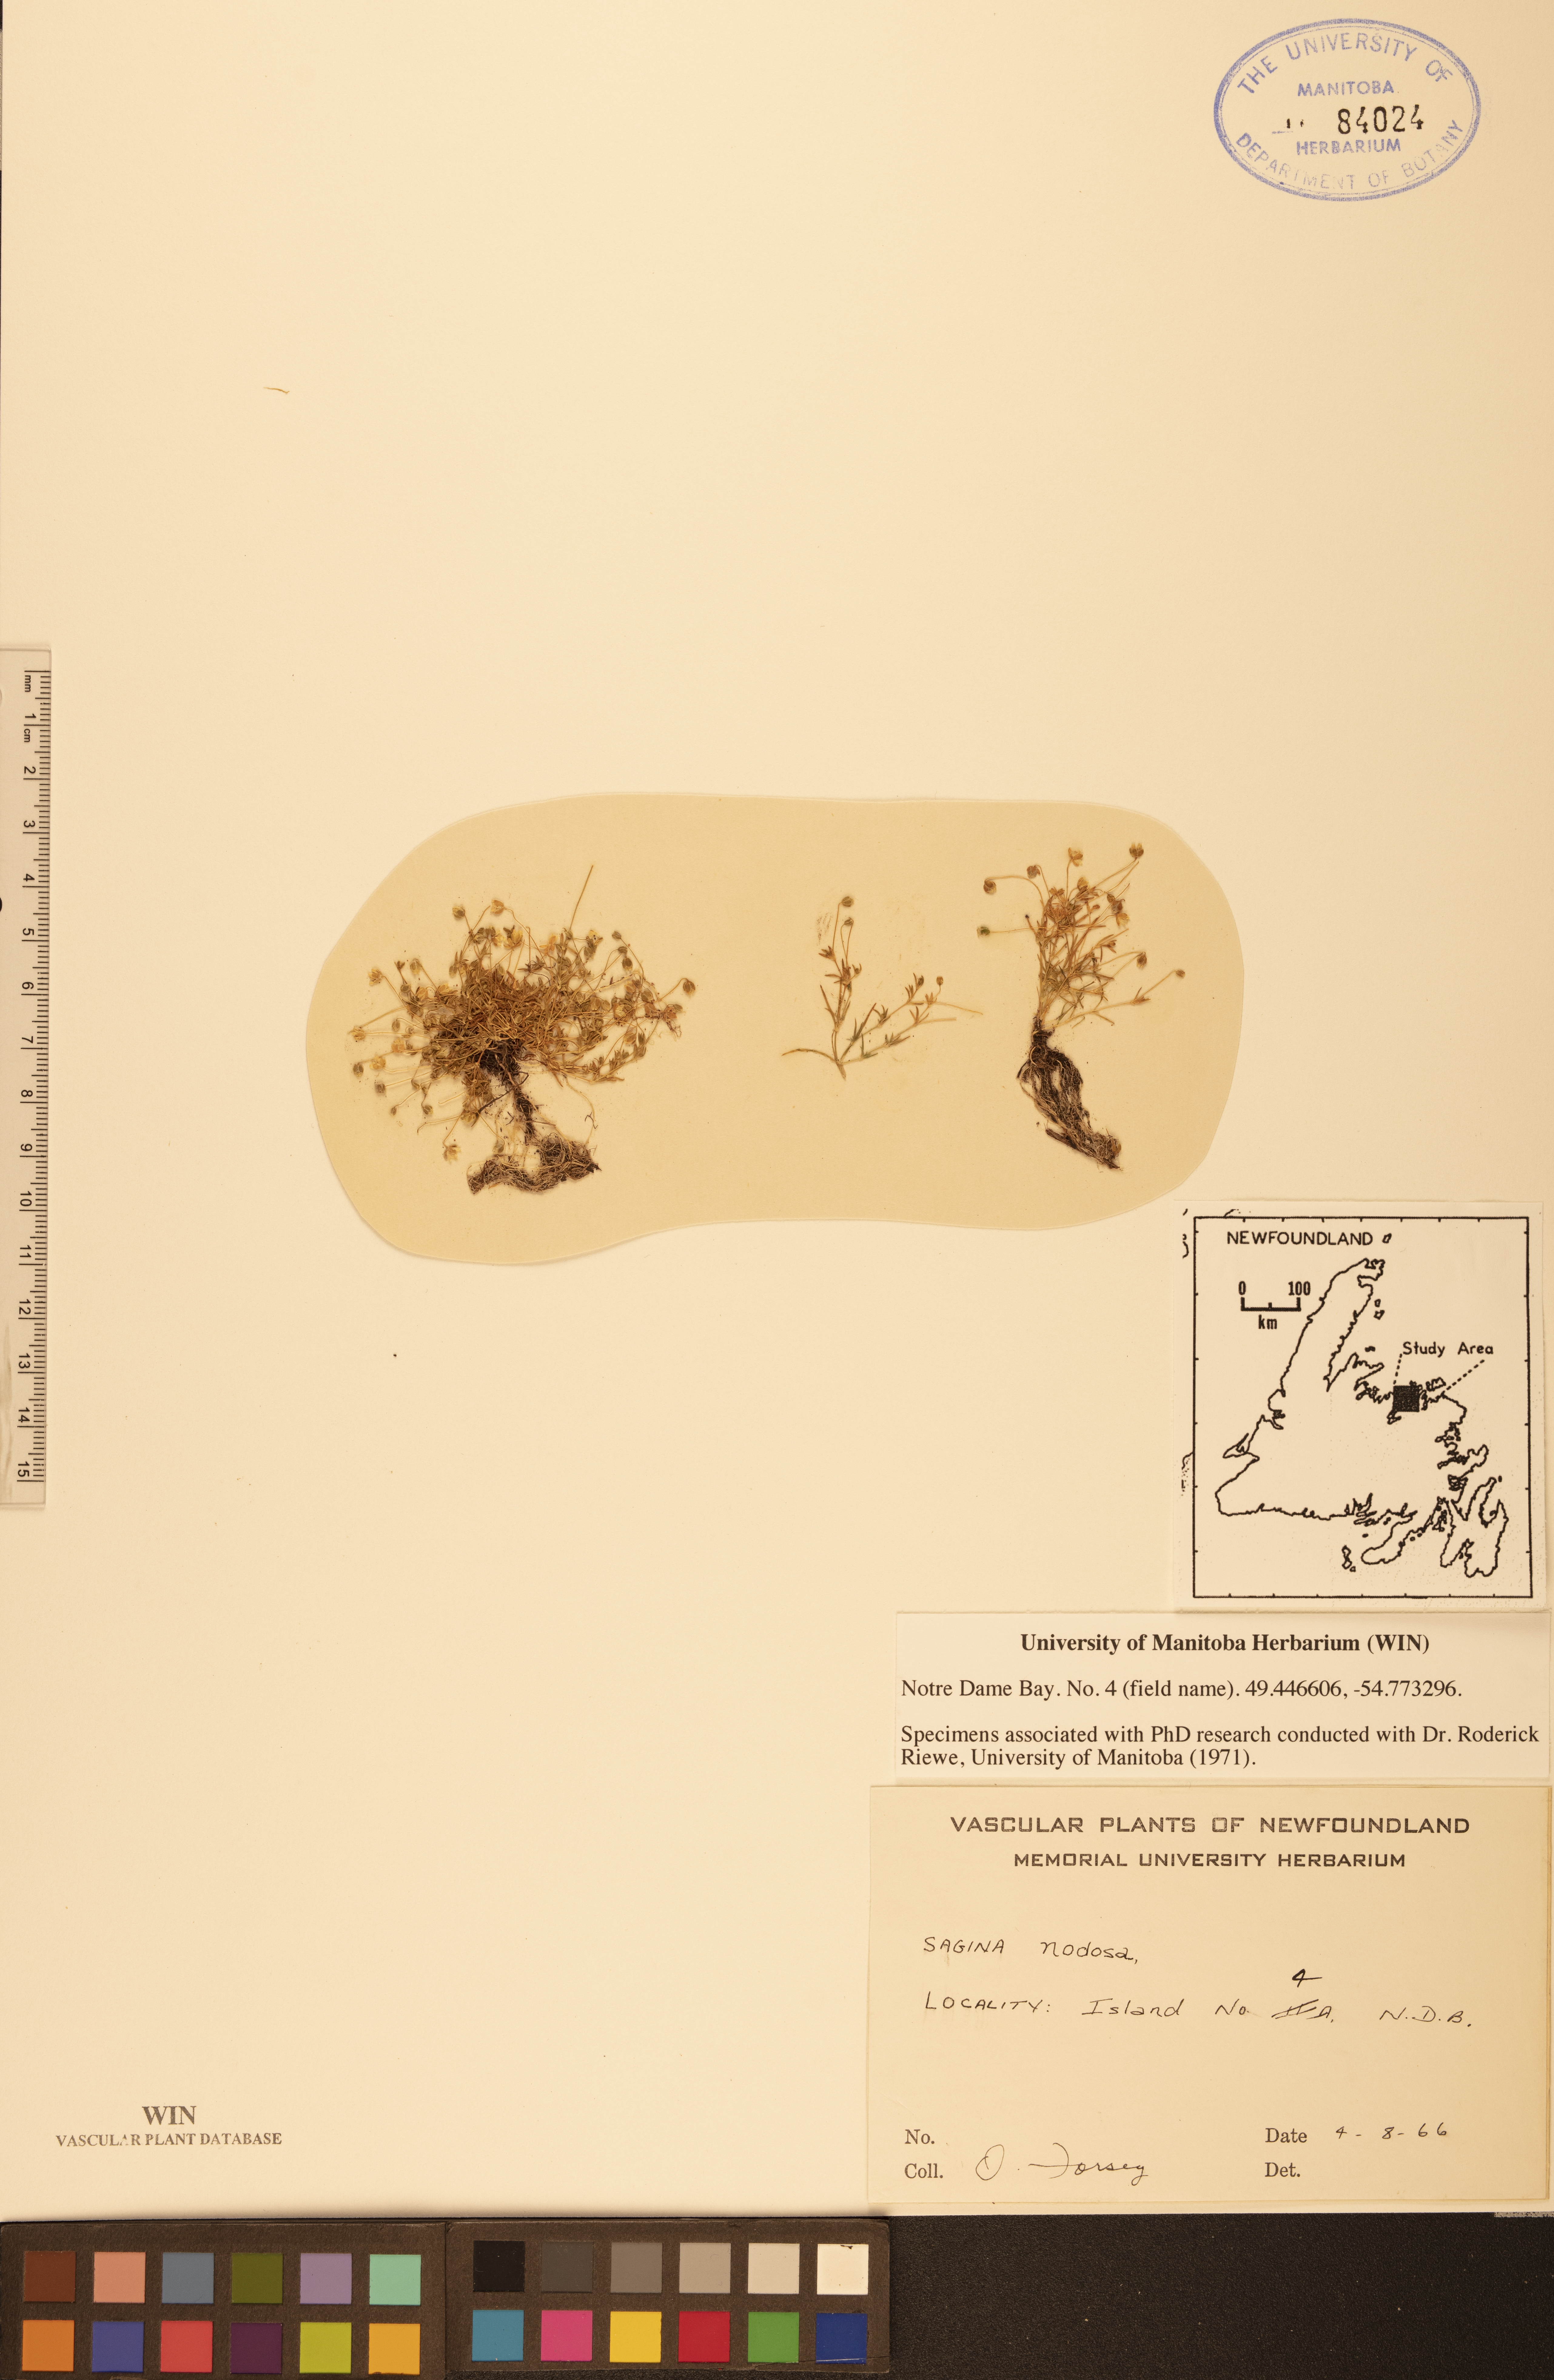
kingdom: Plantae
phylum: Tracheophyta
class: Magnoliopsida
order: Caryophyllales
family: Caryophyllaceae
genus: Sagina
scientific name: Sagina nodosa
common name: Knotted pearlwort
